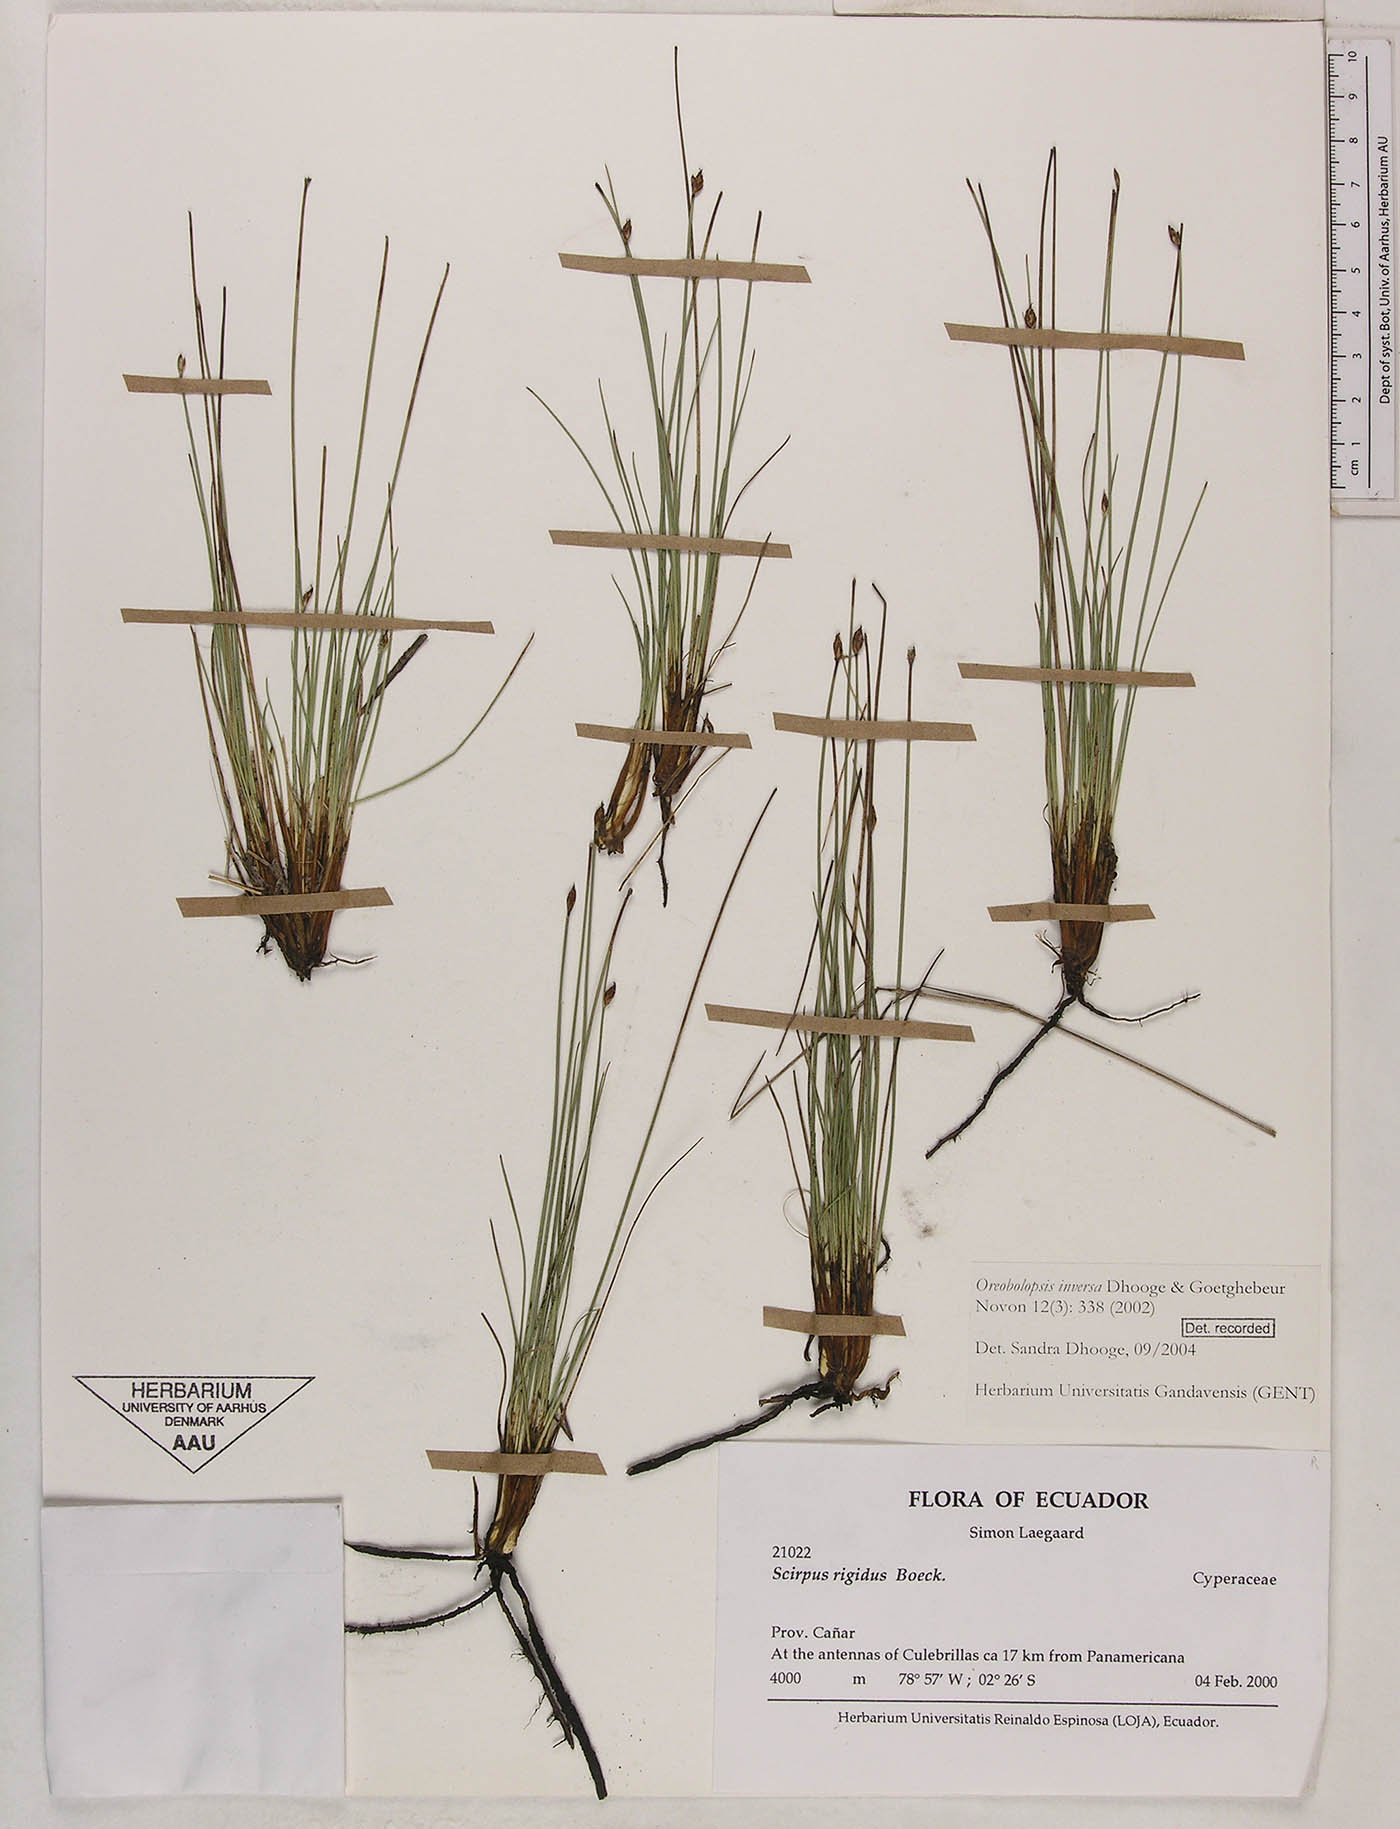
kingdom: Plantae
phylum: Tracheophyta
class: Liliopsida
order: Poales
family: Cyperaceae
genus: Trichophorum
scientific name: Trichophorum inversum
